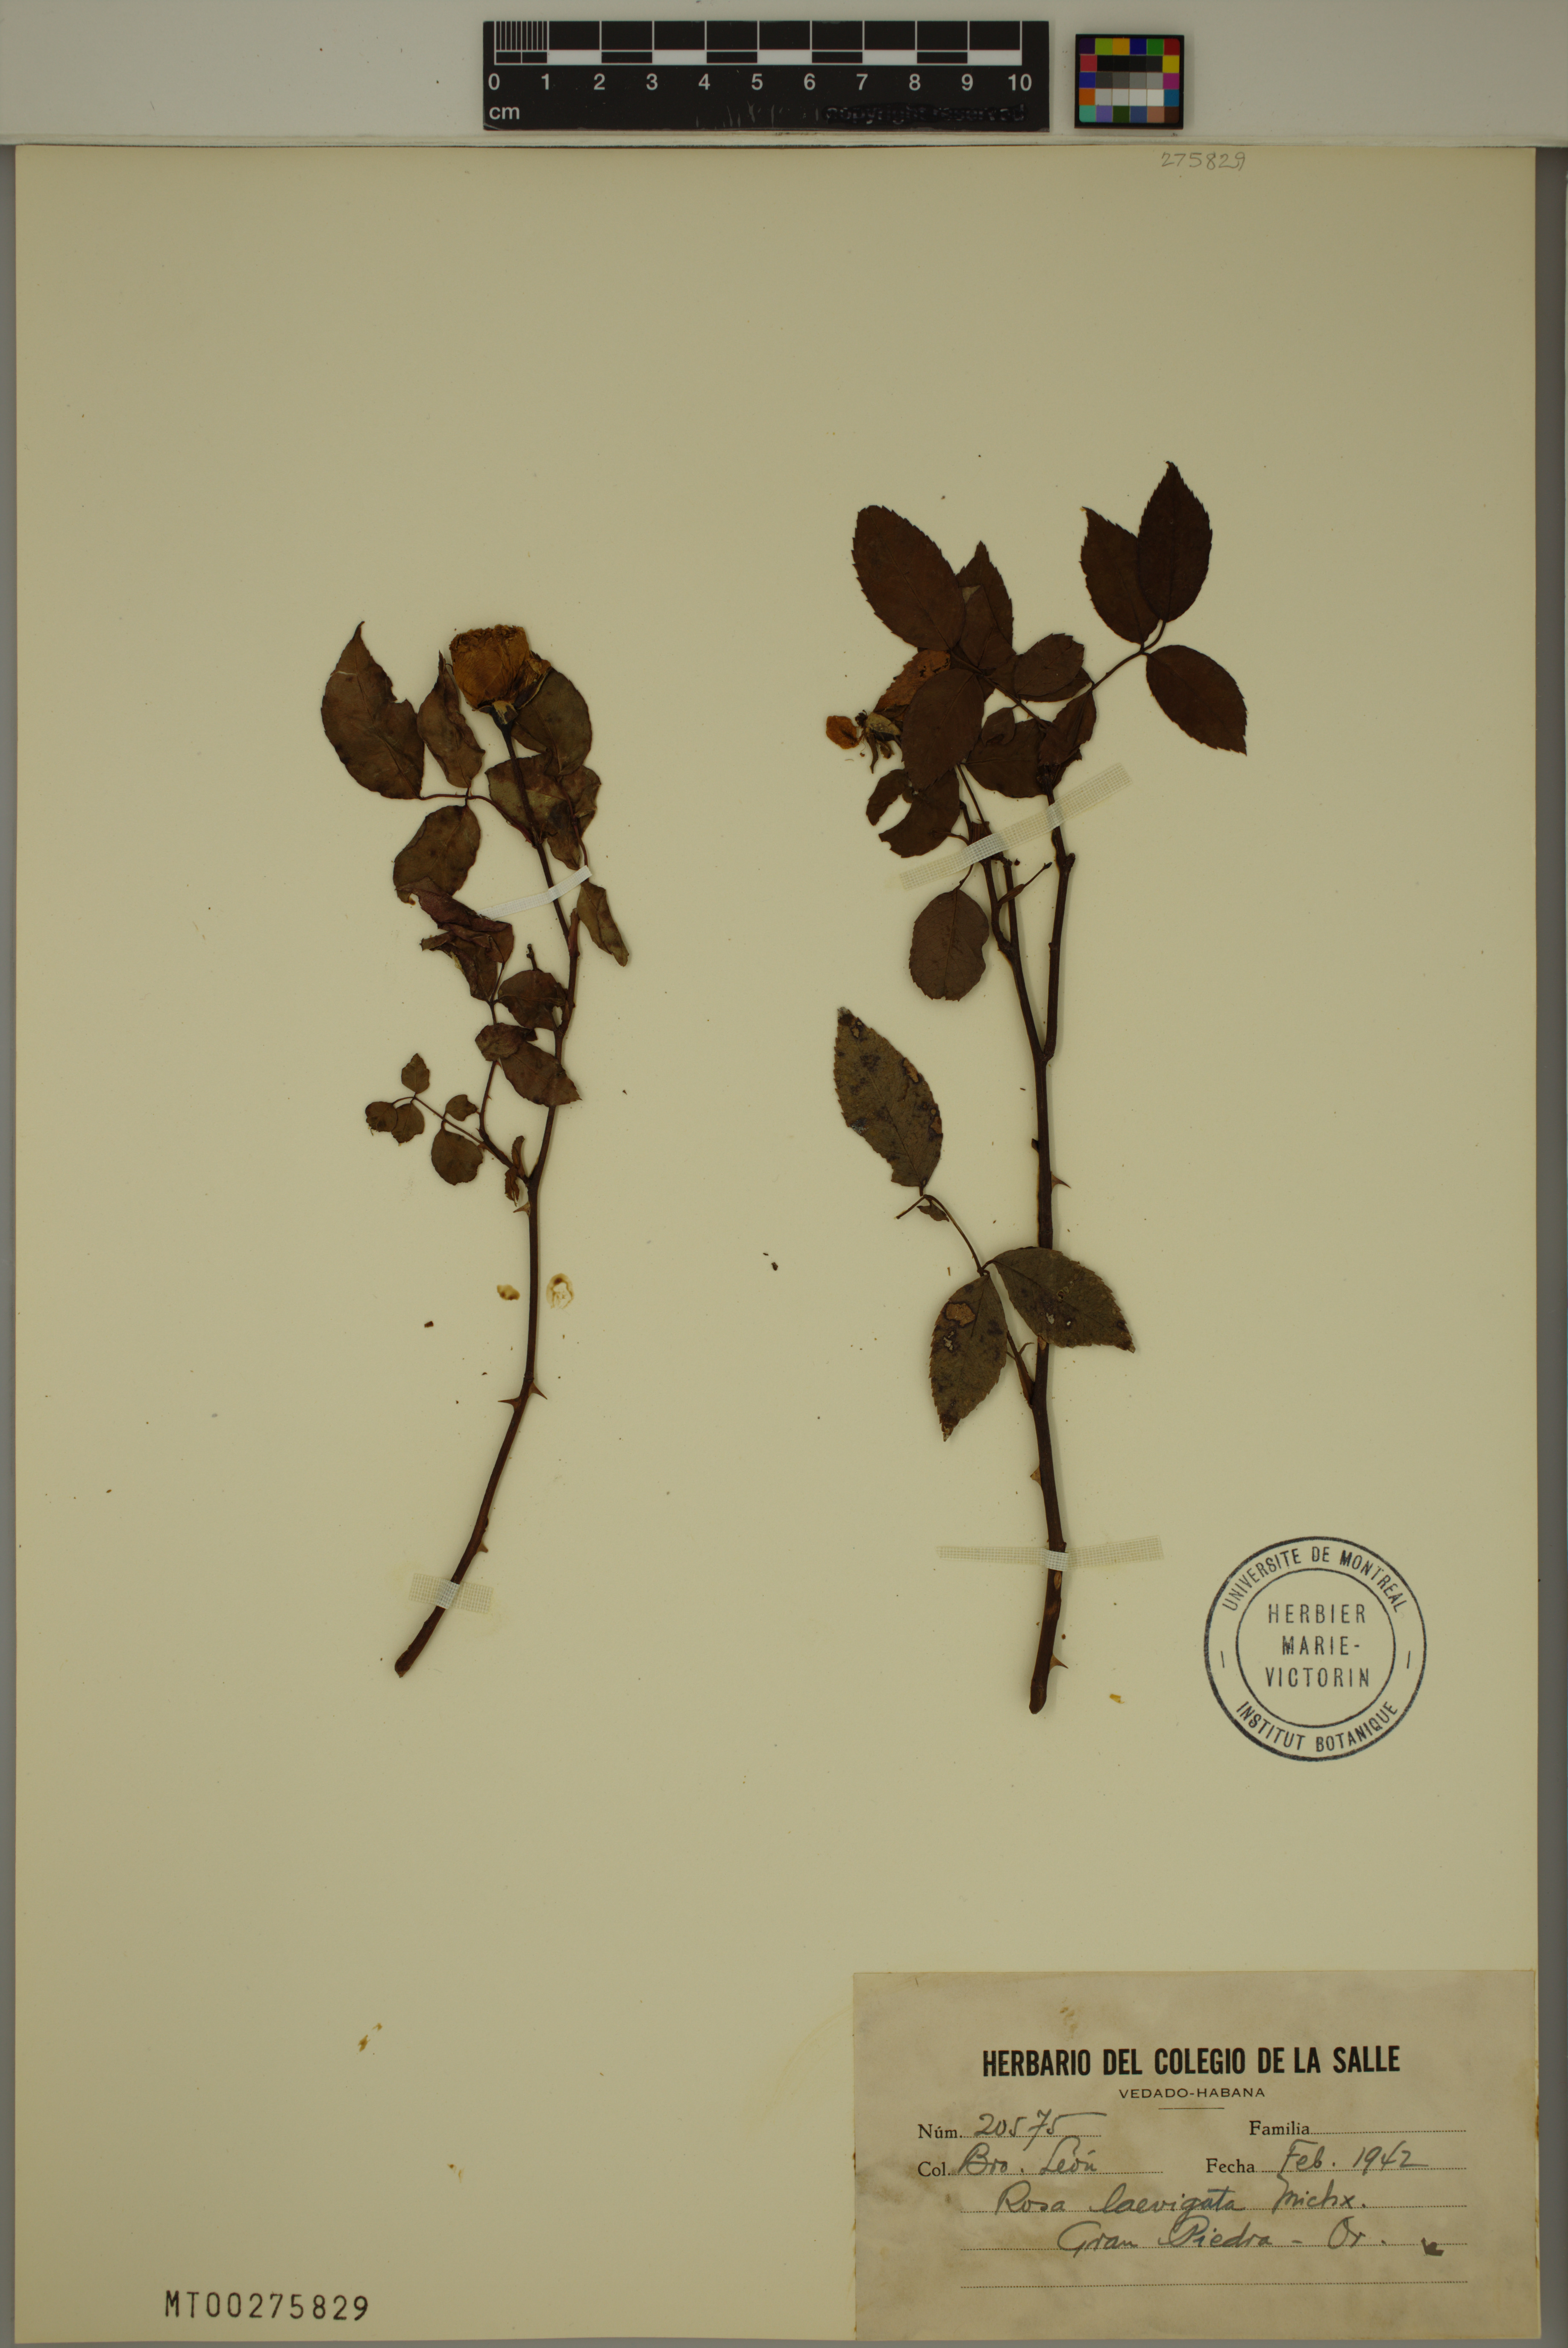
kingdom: Plantae
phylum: Tracheophyta
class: Magnoliopsida
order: Rosales
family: Rosaceae
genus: Rosa
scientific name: Rosa laevigata
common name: Cherokee rose
